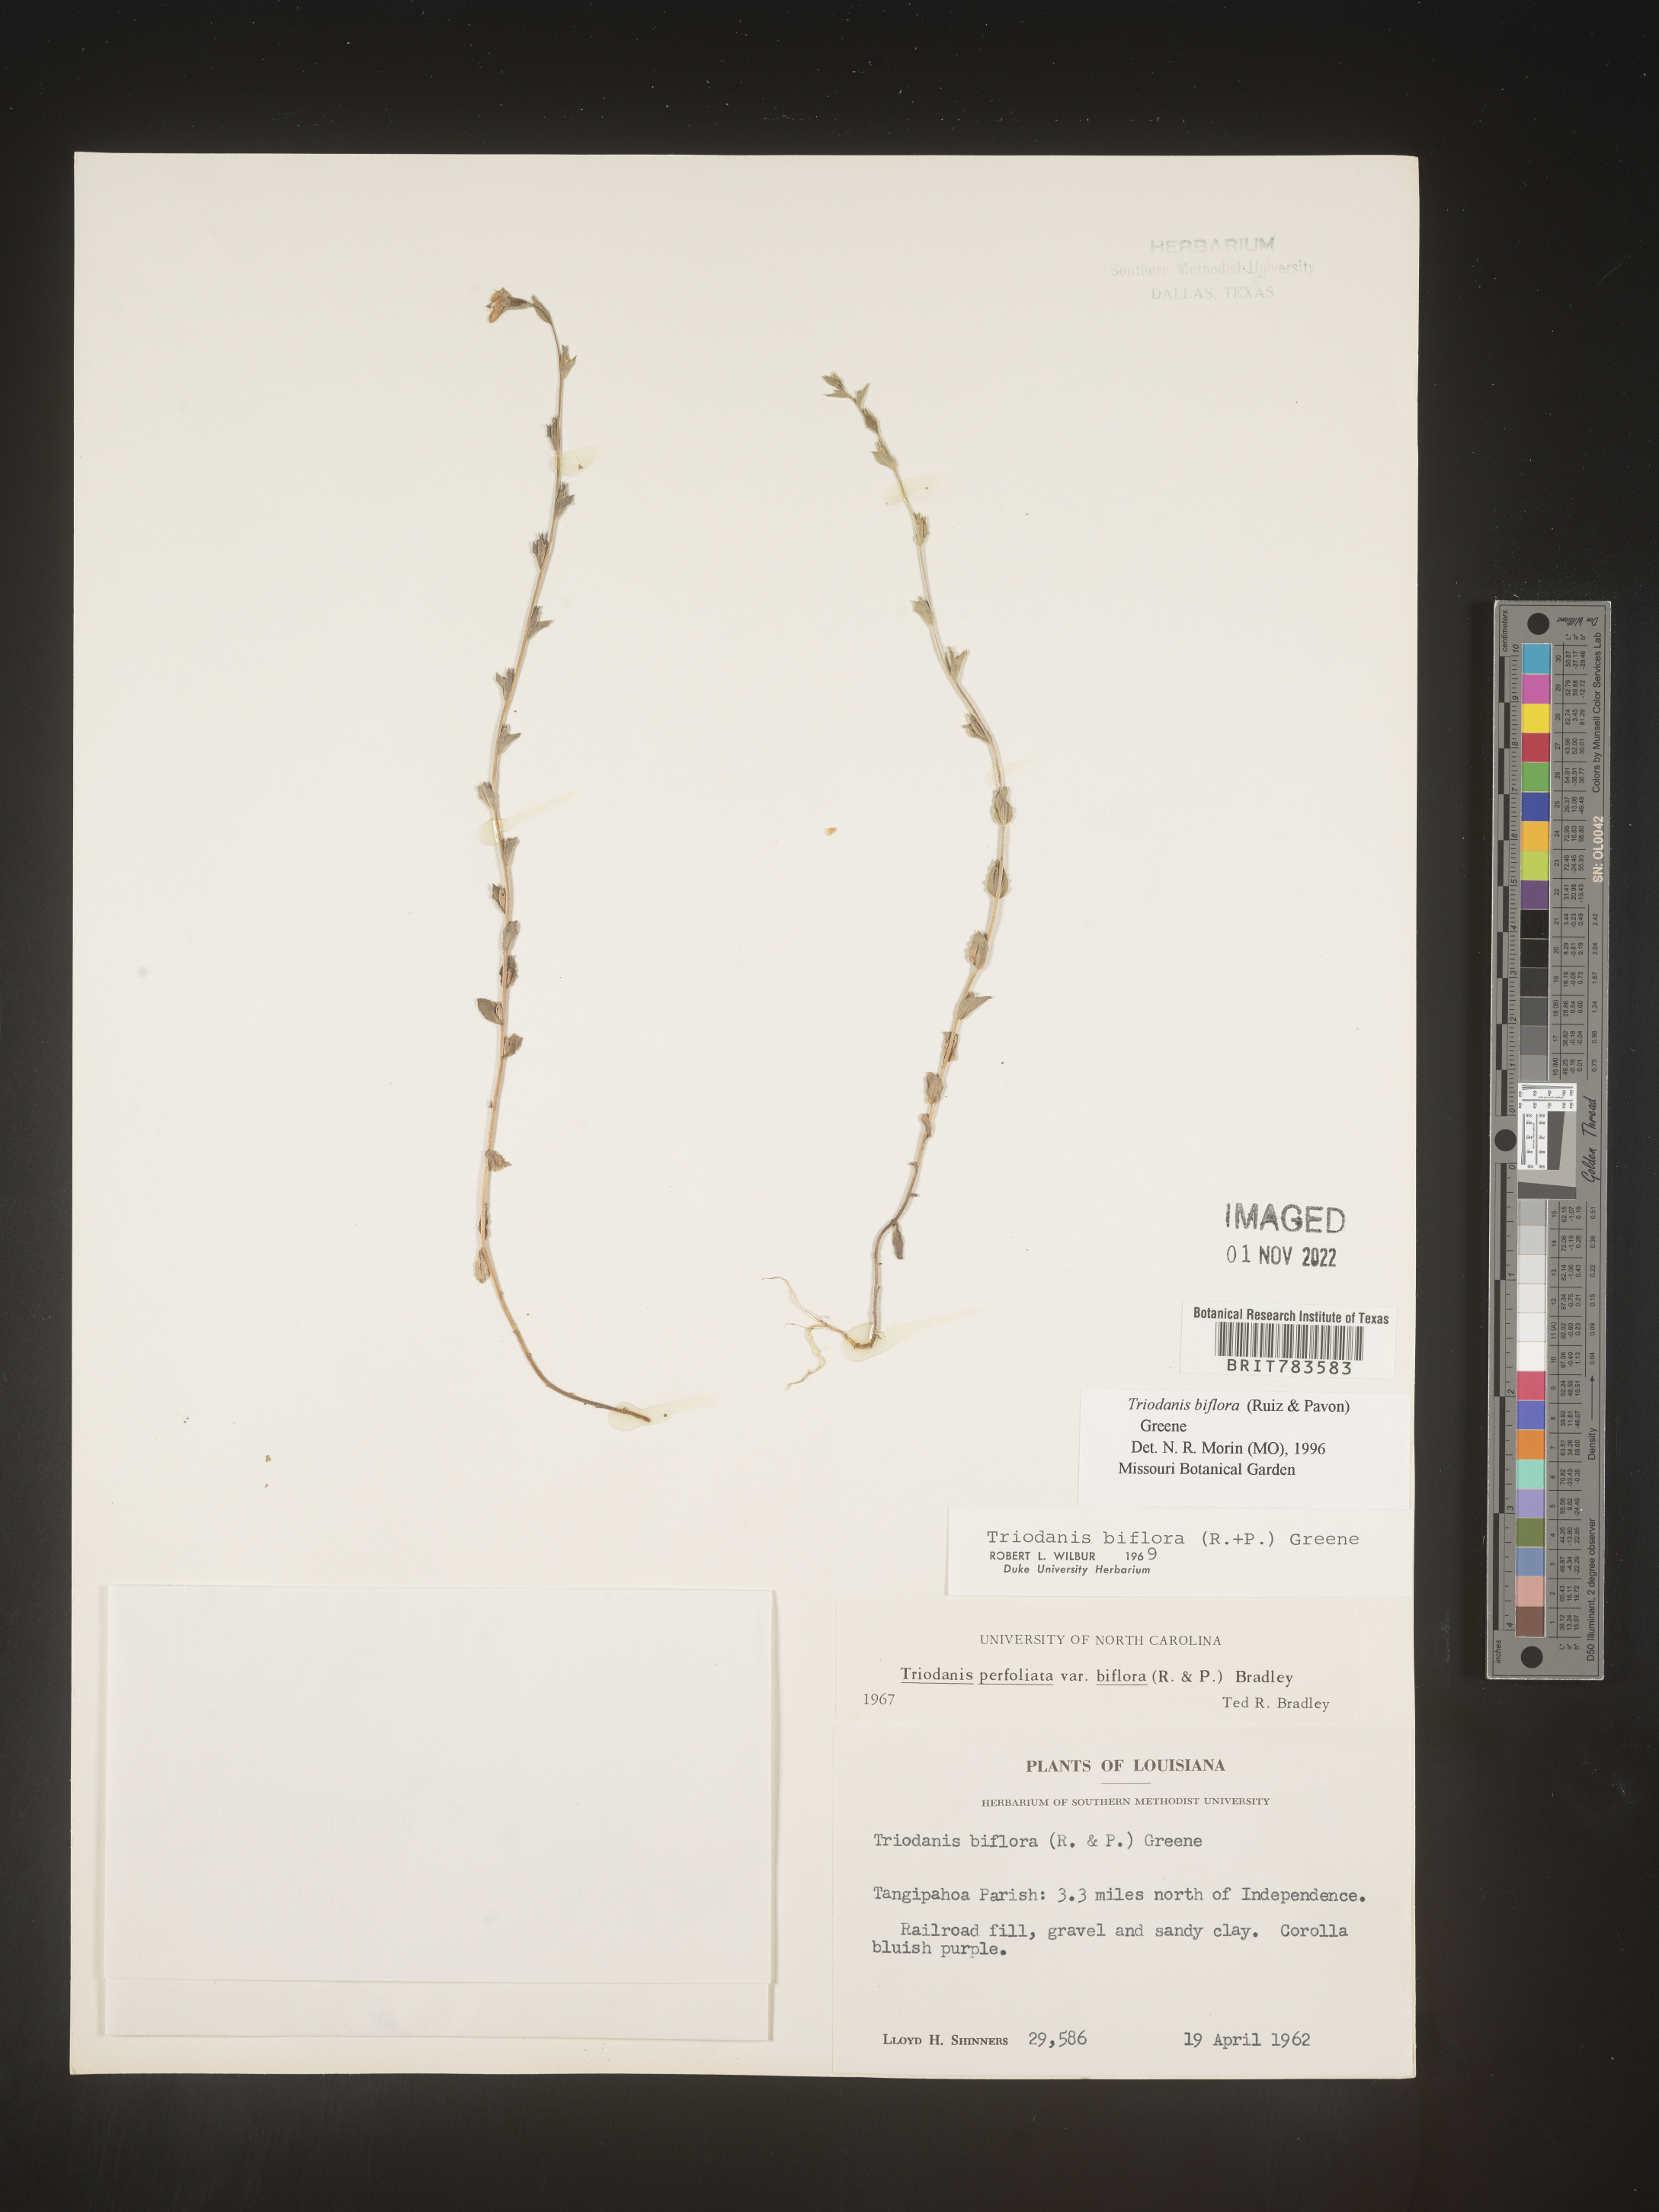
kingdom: Plantae
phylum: Tracheophyta
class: Magnoliopsida
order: Asterales
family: Campanulaceae
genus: Triodanis
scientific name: Triodanis perfoliata
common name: Clasping venus' looking-glass
